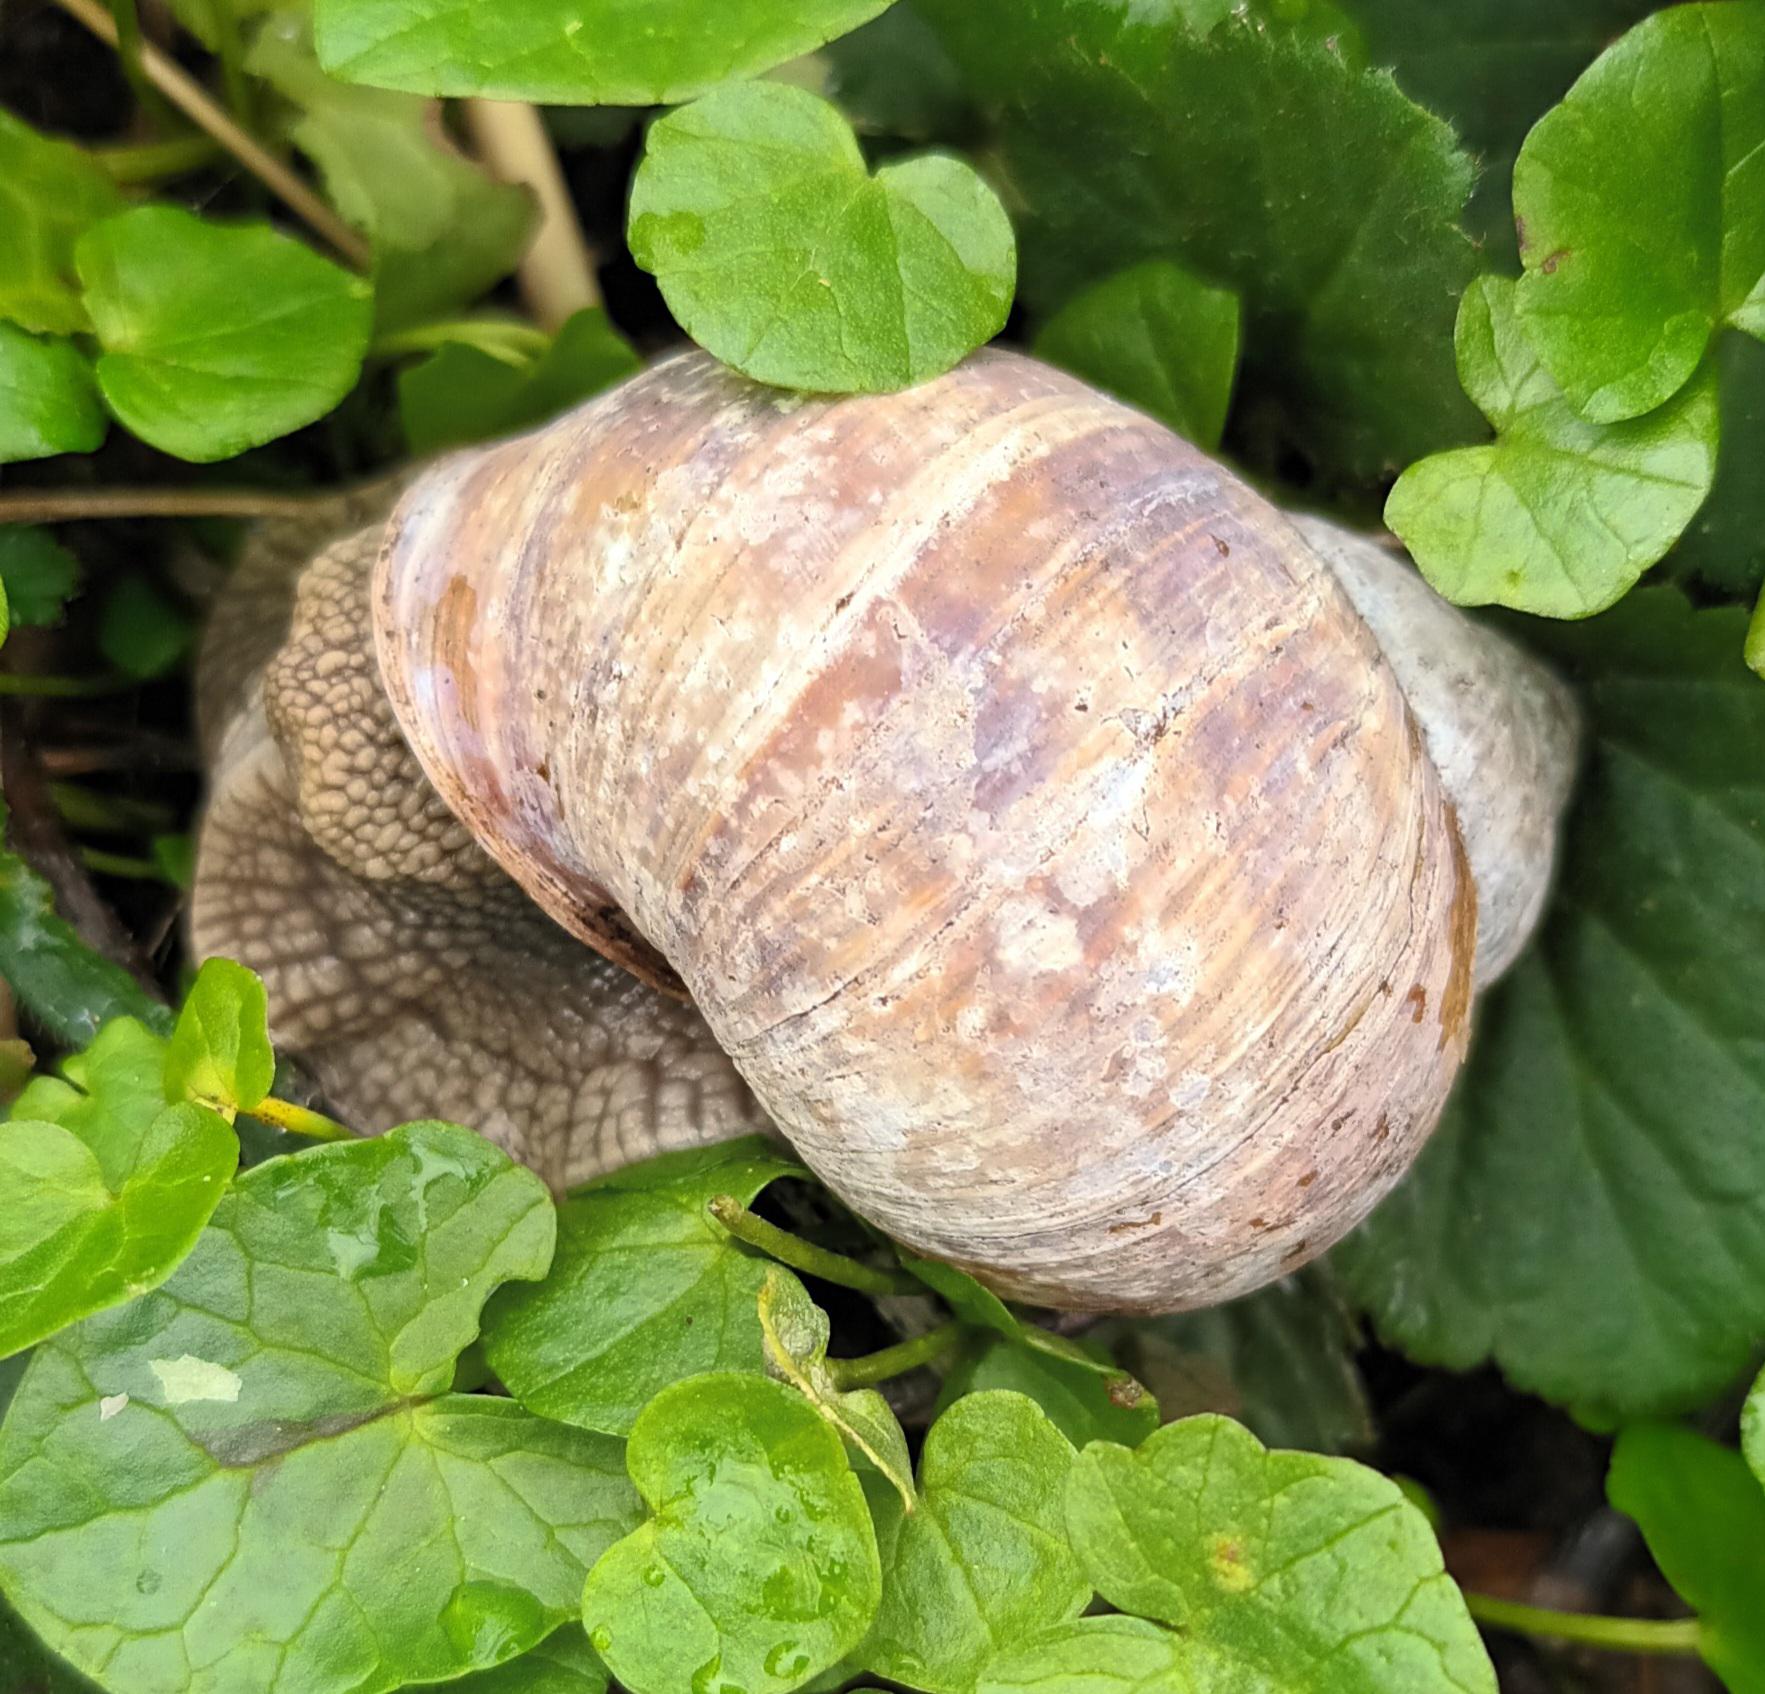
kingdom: Animalia
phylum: Mollusca
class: Gastropoda
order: Stylommatophora
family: Helicidae
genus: Helix
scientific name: Helix pomatia
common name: Vinbjergsnegl
